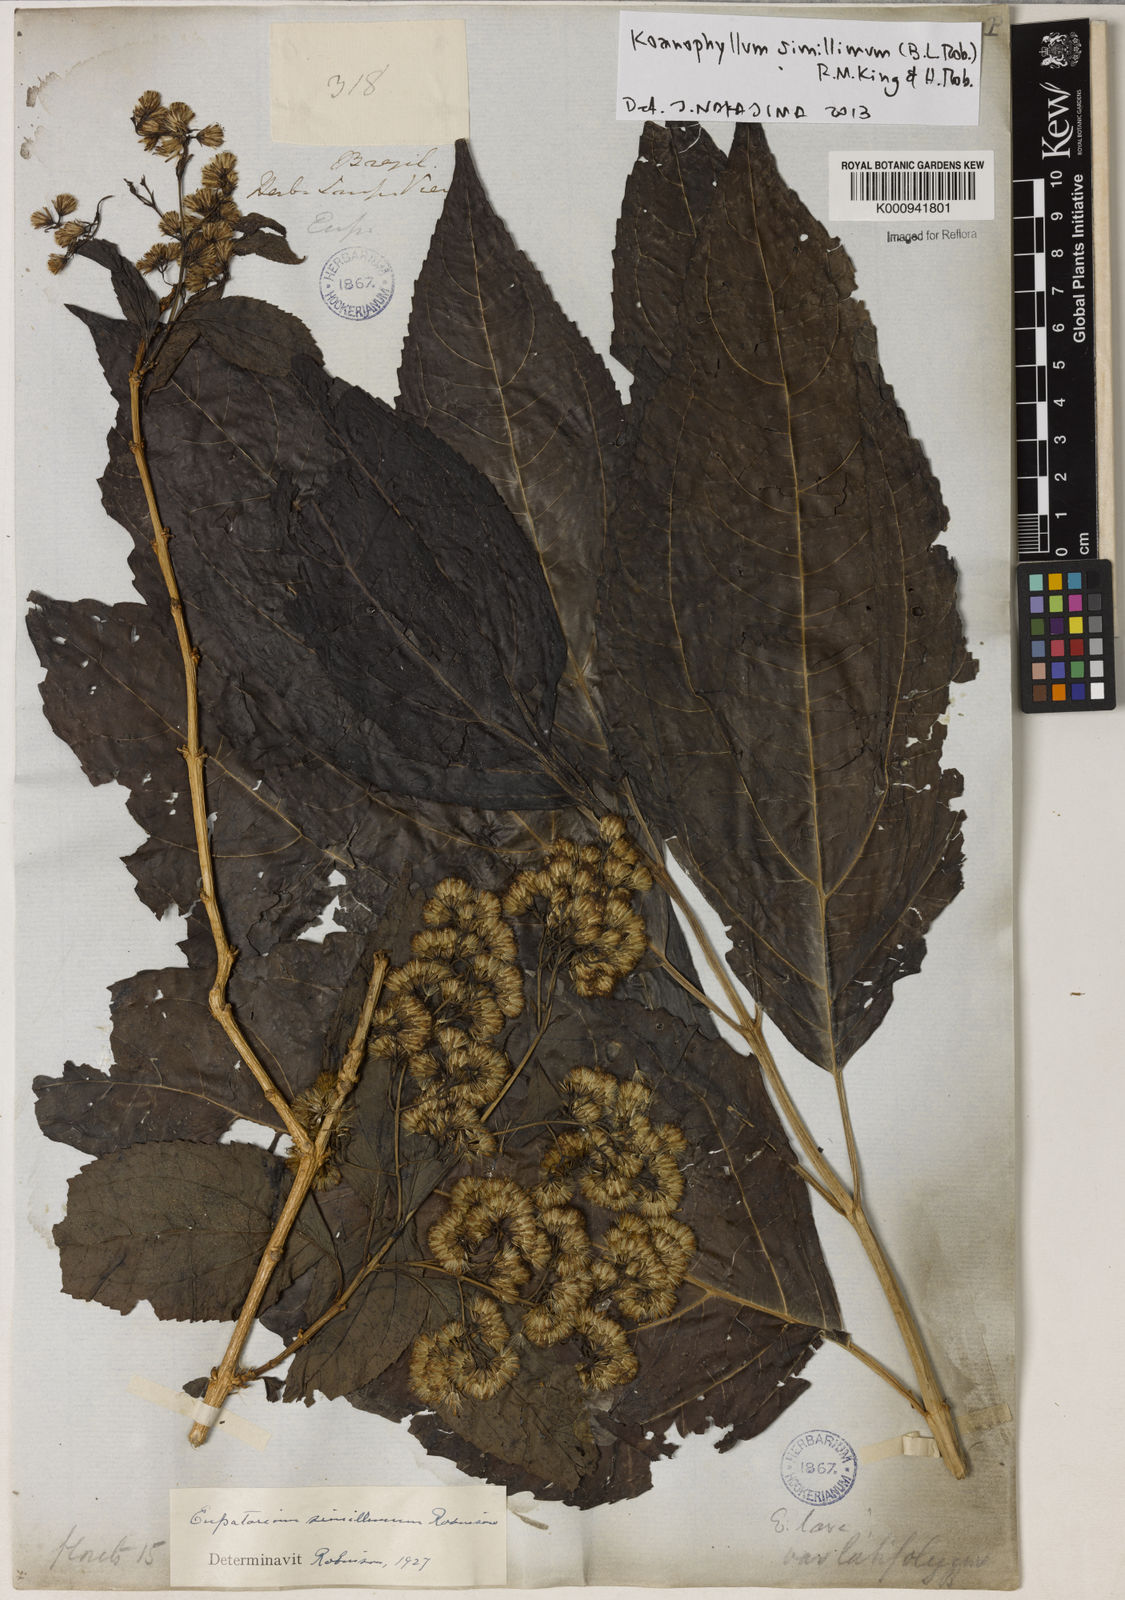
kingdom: Plantae
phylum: Tracheophyta
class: Magnoliopsida
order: Asterales
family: Asteraceae
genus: Koanophyllon
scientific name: Koanophyllon simillimum
